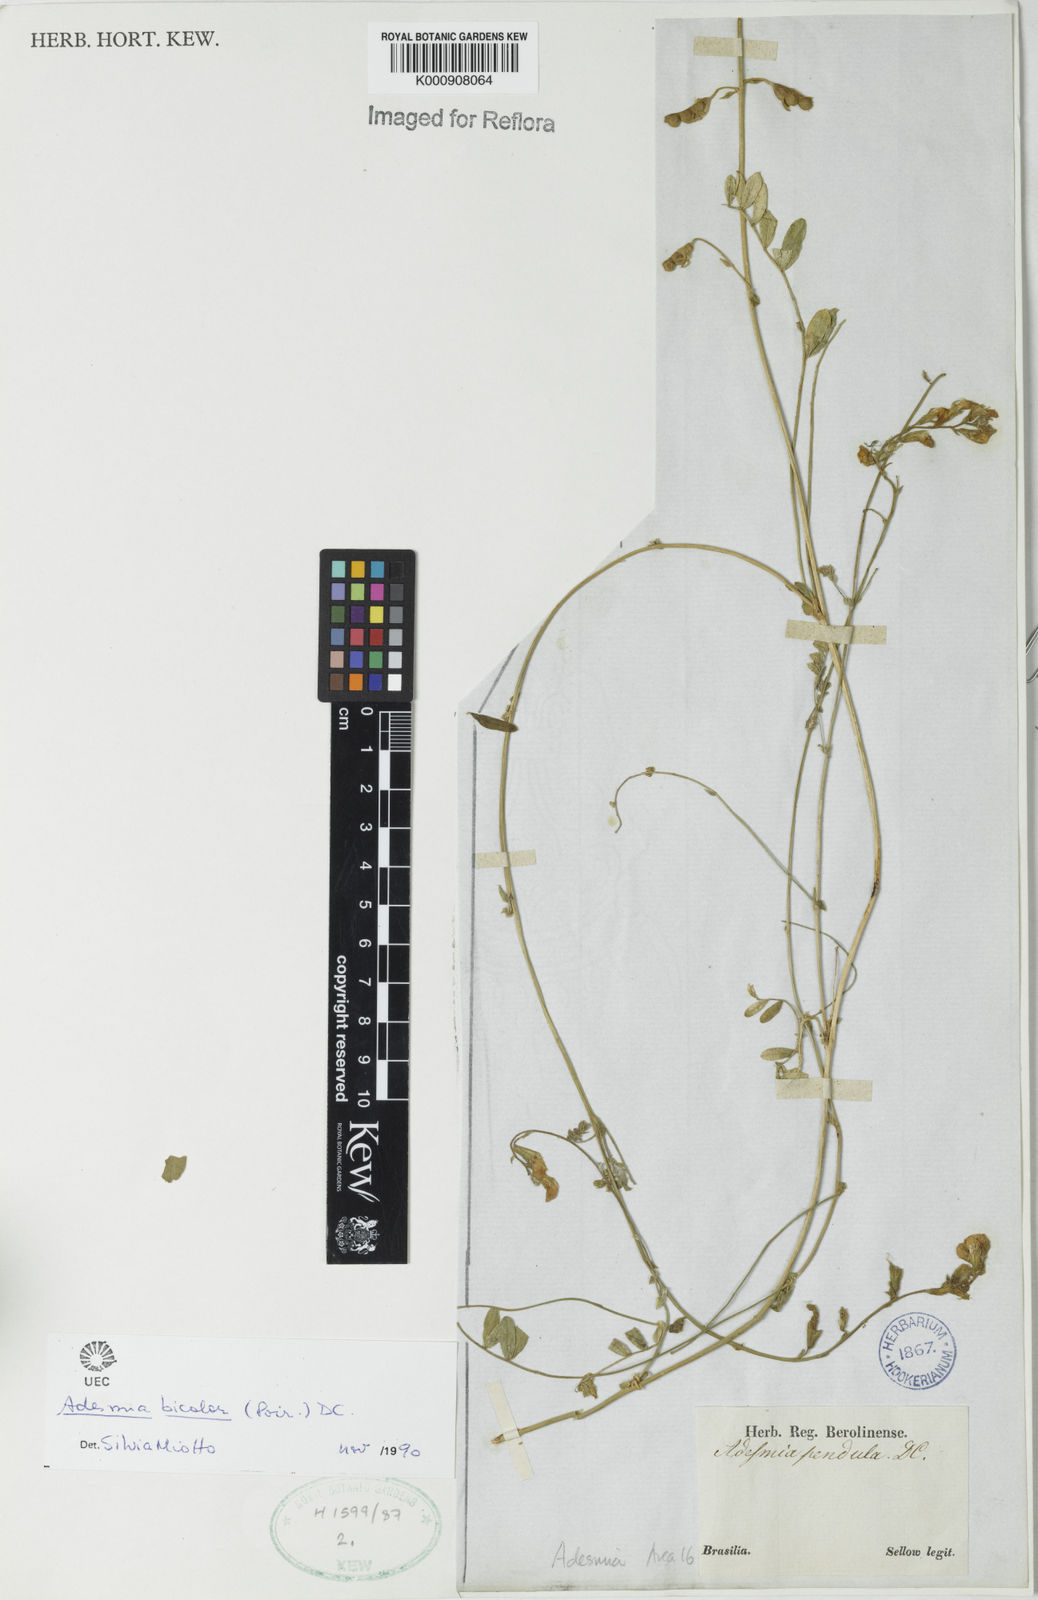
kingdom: Plantae
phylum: Tracheophyta
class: Magnoliopsida
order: Fabales
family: Fabaceae
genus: Adesmia
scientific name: Adesmia bicolora
